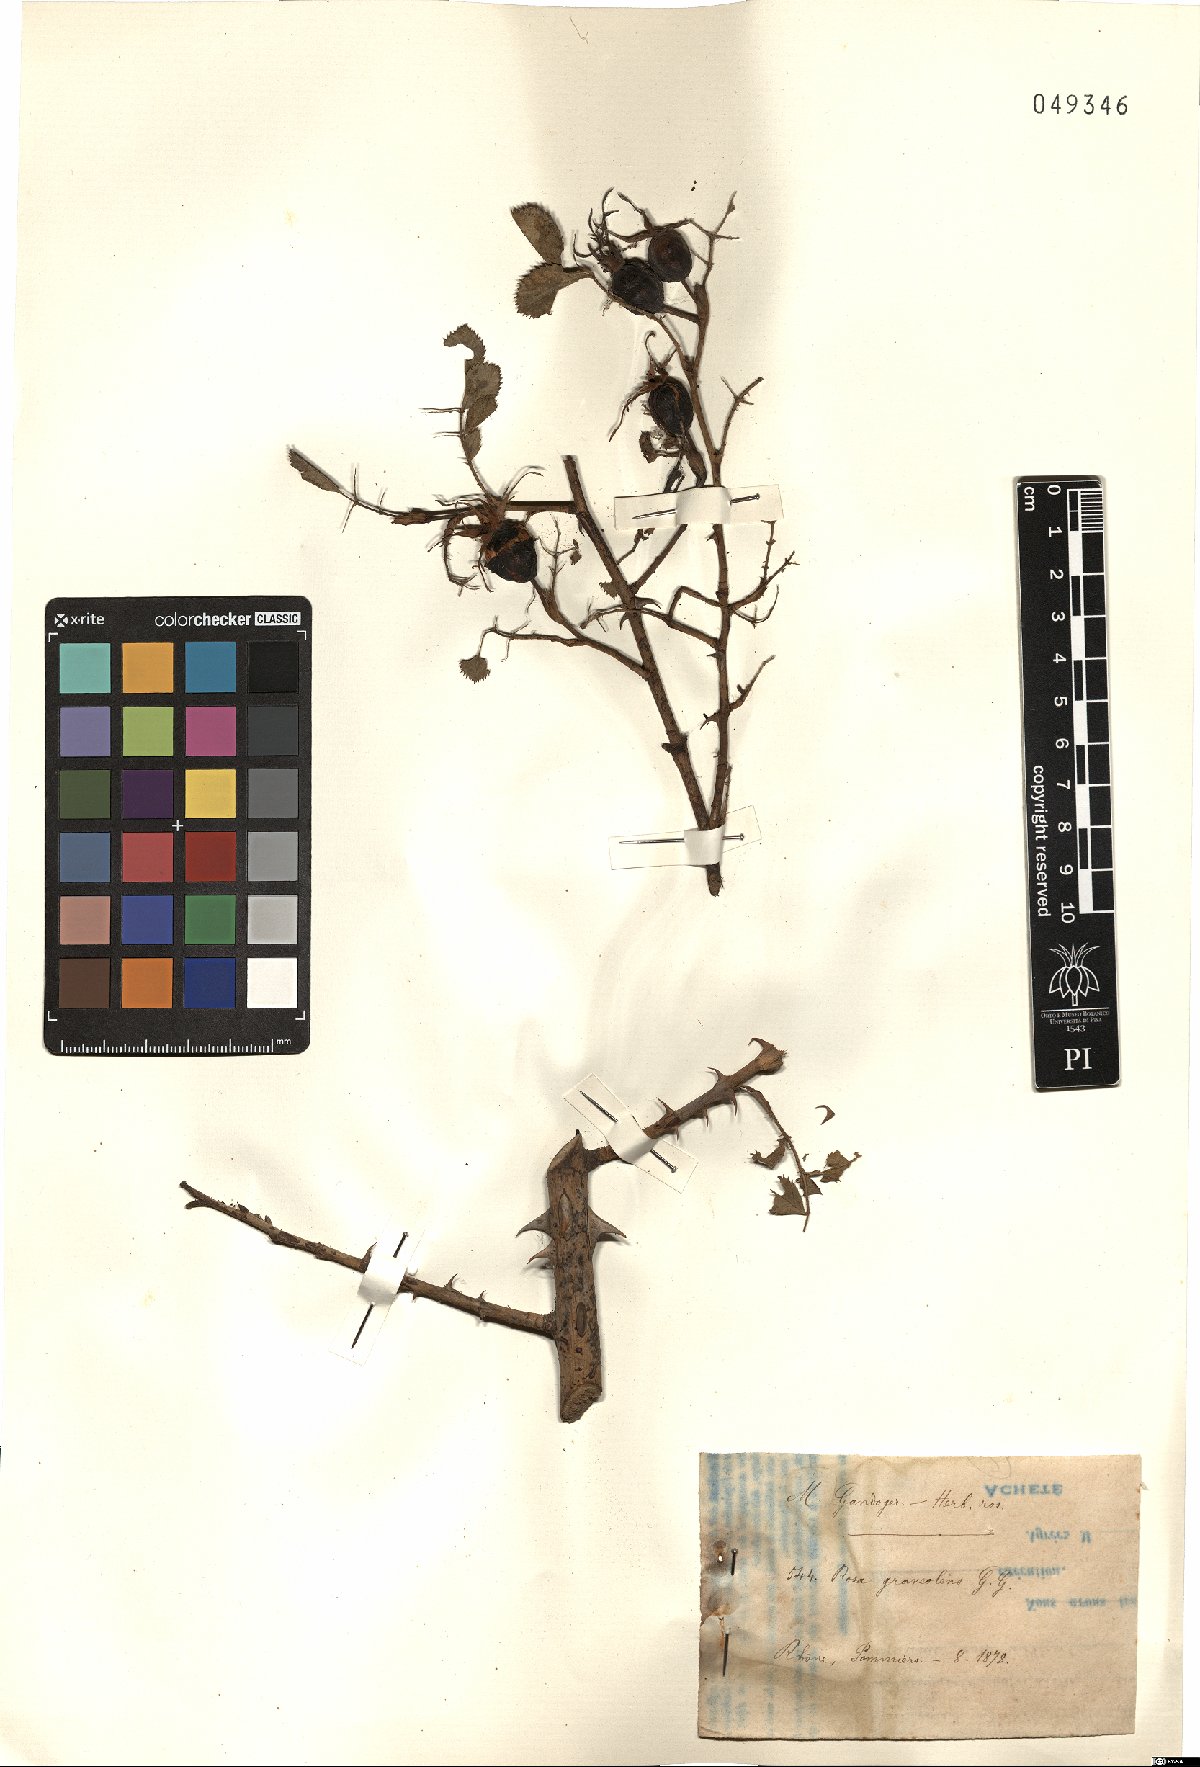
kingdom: Plantae
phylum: Tracheophyta
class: Magnoliopsida
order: Rosales
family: Rosaceae
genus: Rosa
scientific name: Rosa inodora
